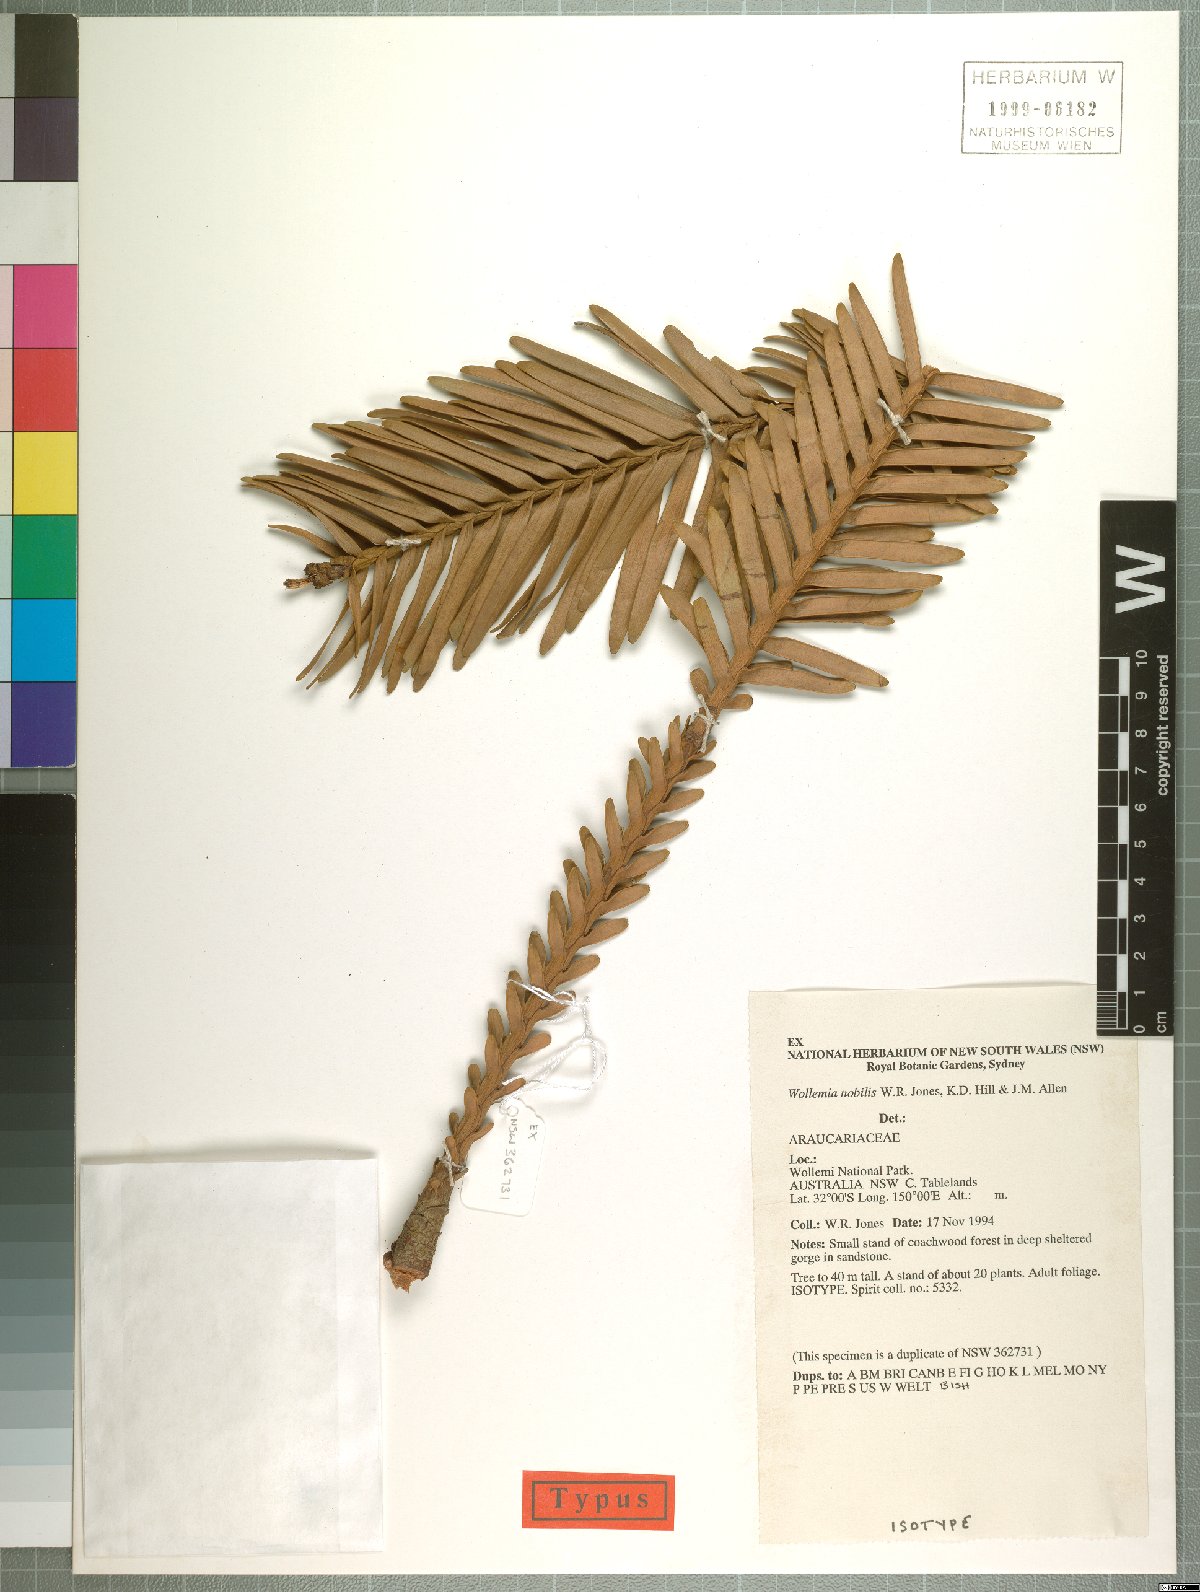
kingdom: Plantae
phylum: Tracheophyta
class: Pinopsida
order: Pinales
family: Araucariaceae
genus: Wollemia
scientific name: Wollemia nobilis
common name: Wollemi pine
